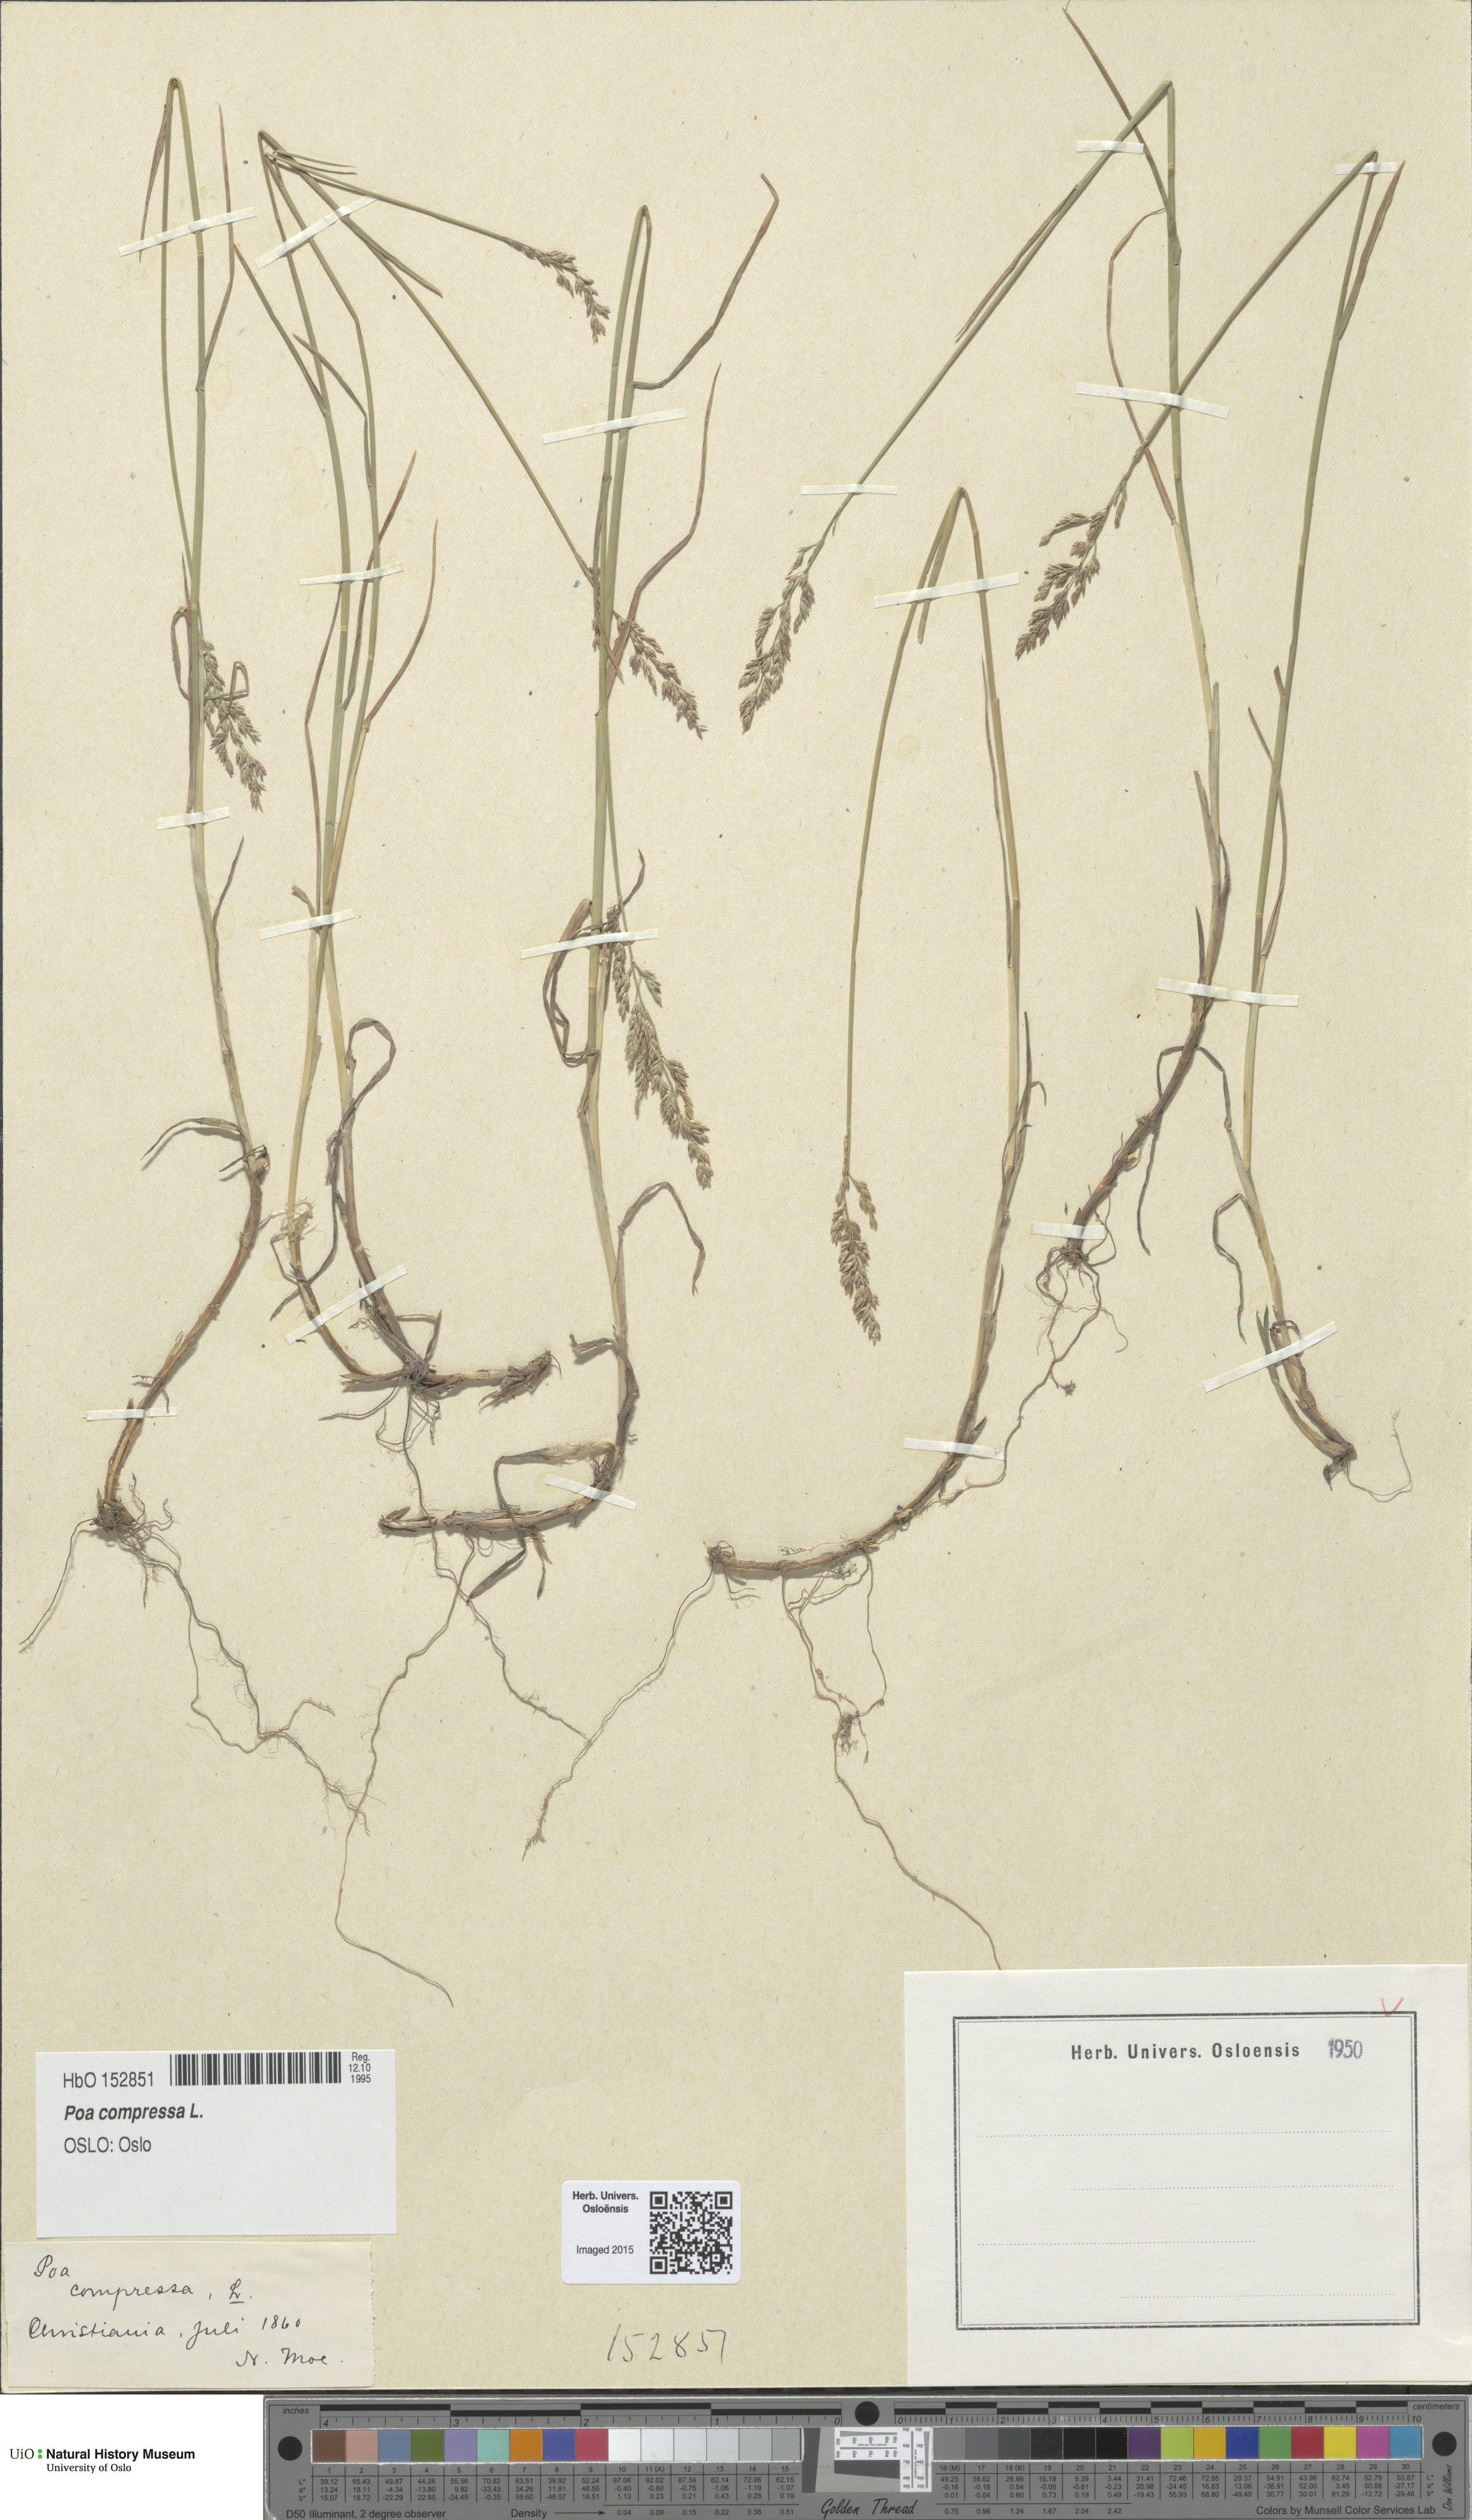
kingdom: Plantae
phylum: Tracheophyta
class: Liliopsida
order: Poales
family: Poaceae
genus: Poa
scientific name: Poa compressa
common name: Canada bluegrass
